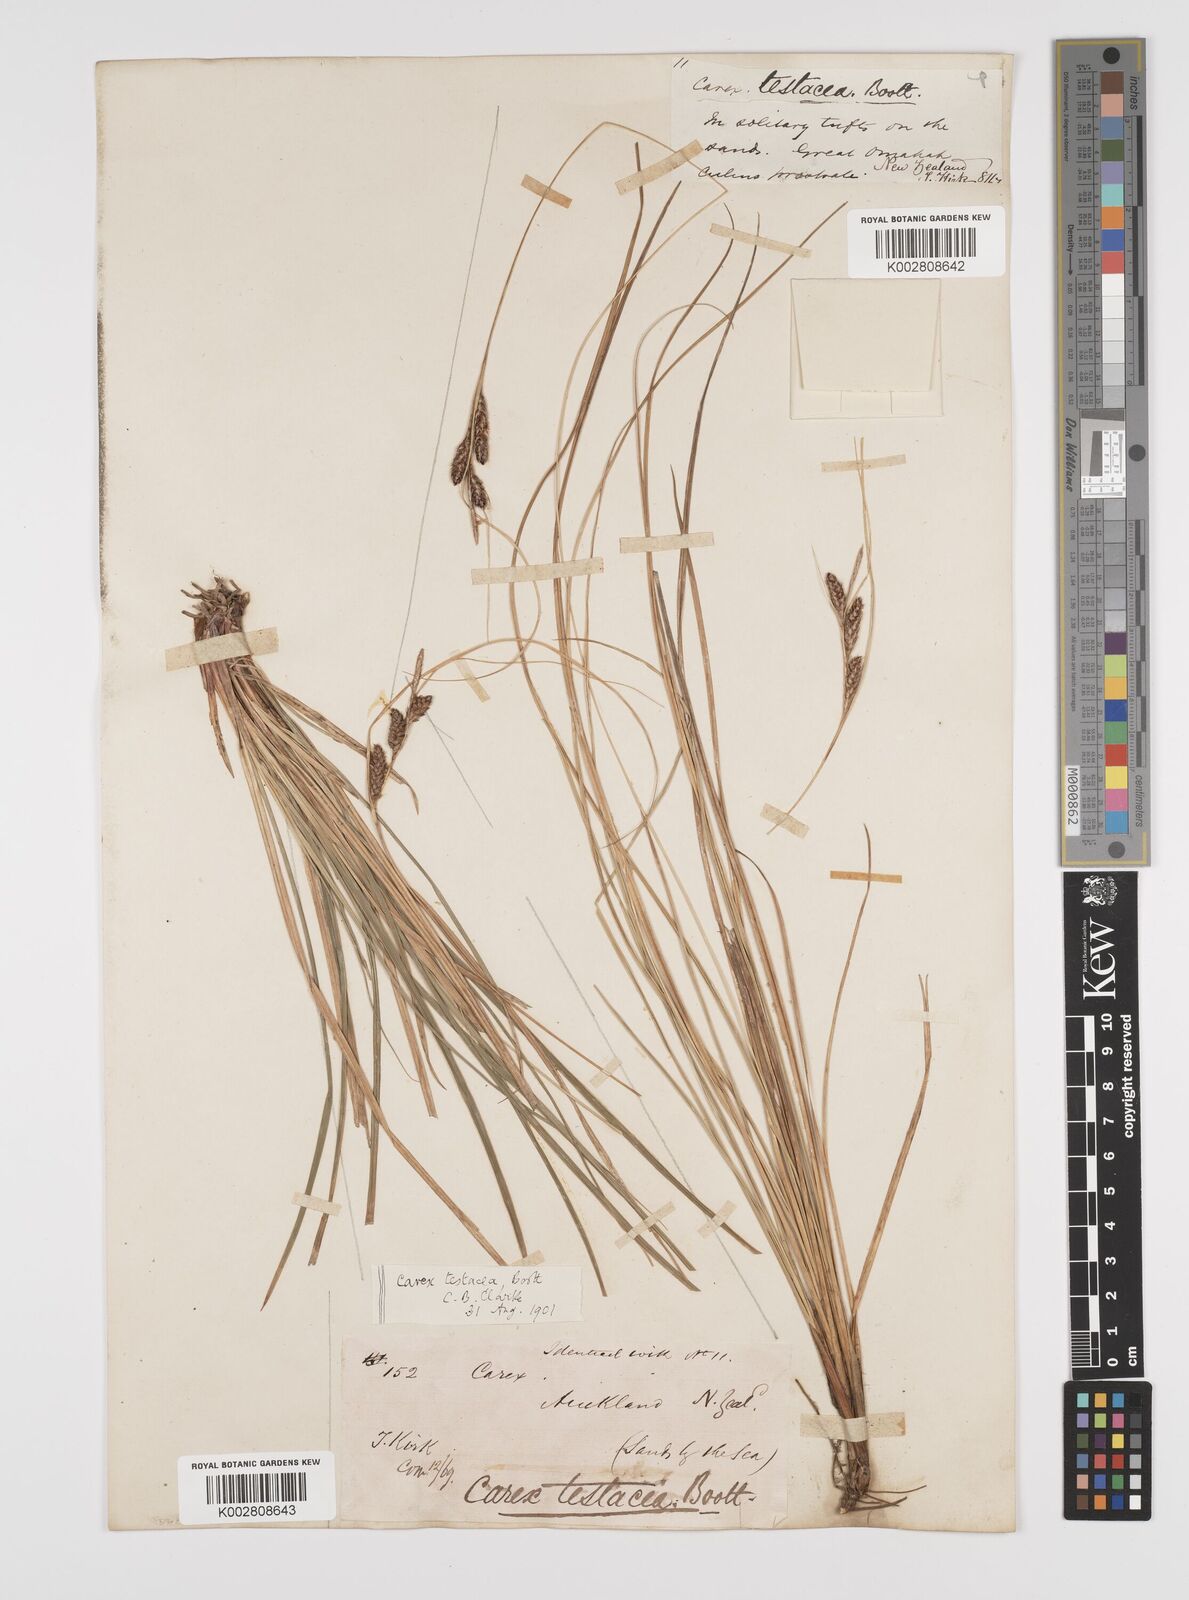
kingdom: Plantae
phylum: Tracheophyta
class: Liliopsida
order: Poales
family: Cyperaceae
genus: Carex
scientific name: Carex testacea
